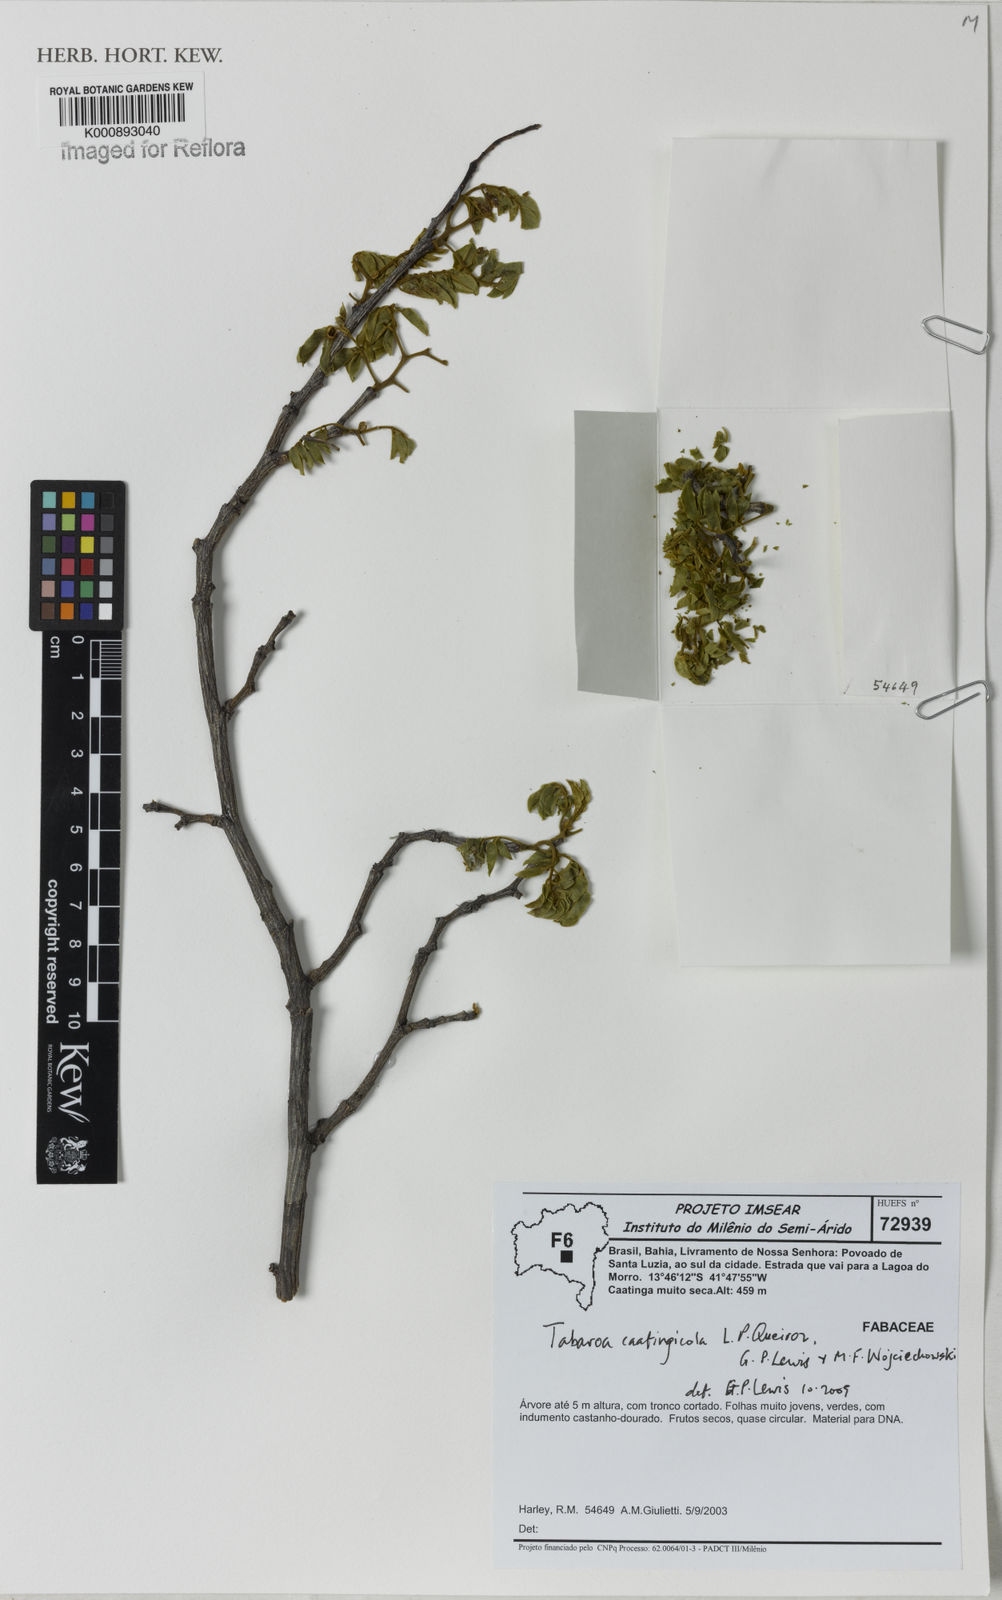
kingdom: Plantae
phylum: Tracheophyta
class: Magnoliopsida
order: Fabales
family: Fabaceae
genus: Tabaroa
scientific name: Tabaroa caatingicola
